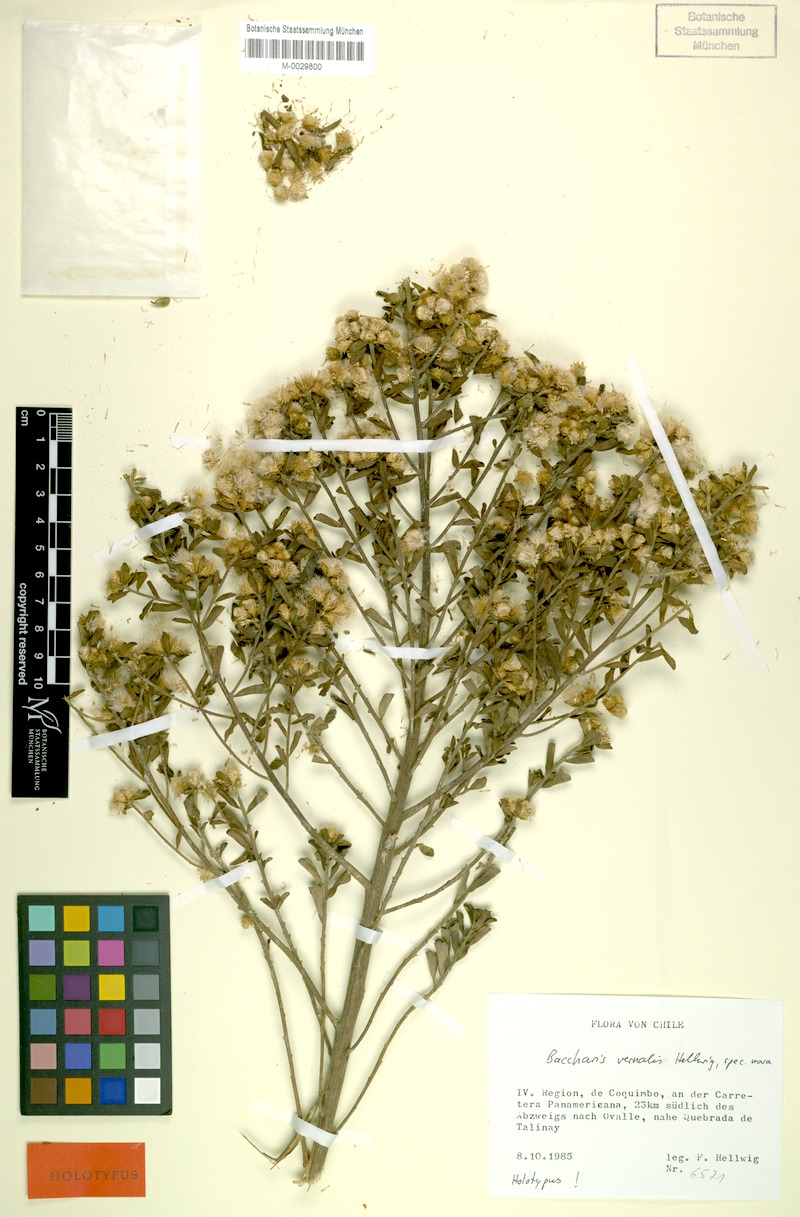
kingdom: Plantae
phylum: Tracheophyta
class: Magnoliopsida
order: Asterales
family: Asteraceae
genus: Baccharis
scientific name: Baccharis vernalis
